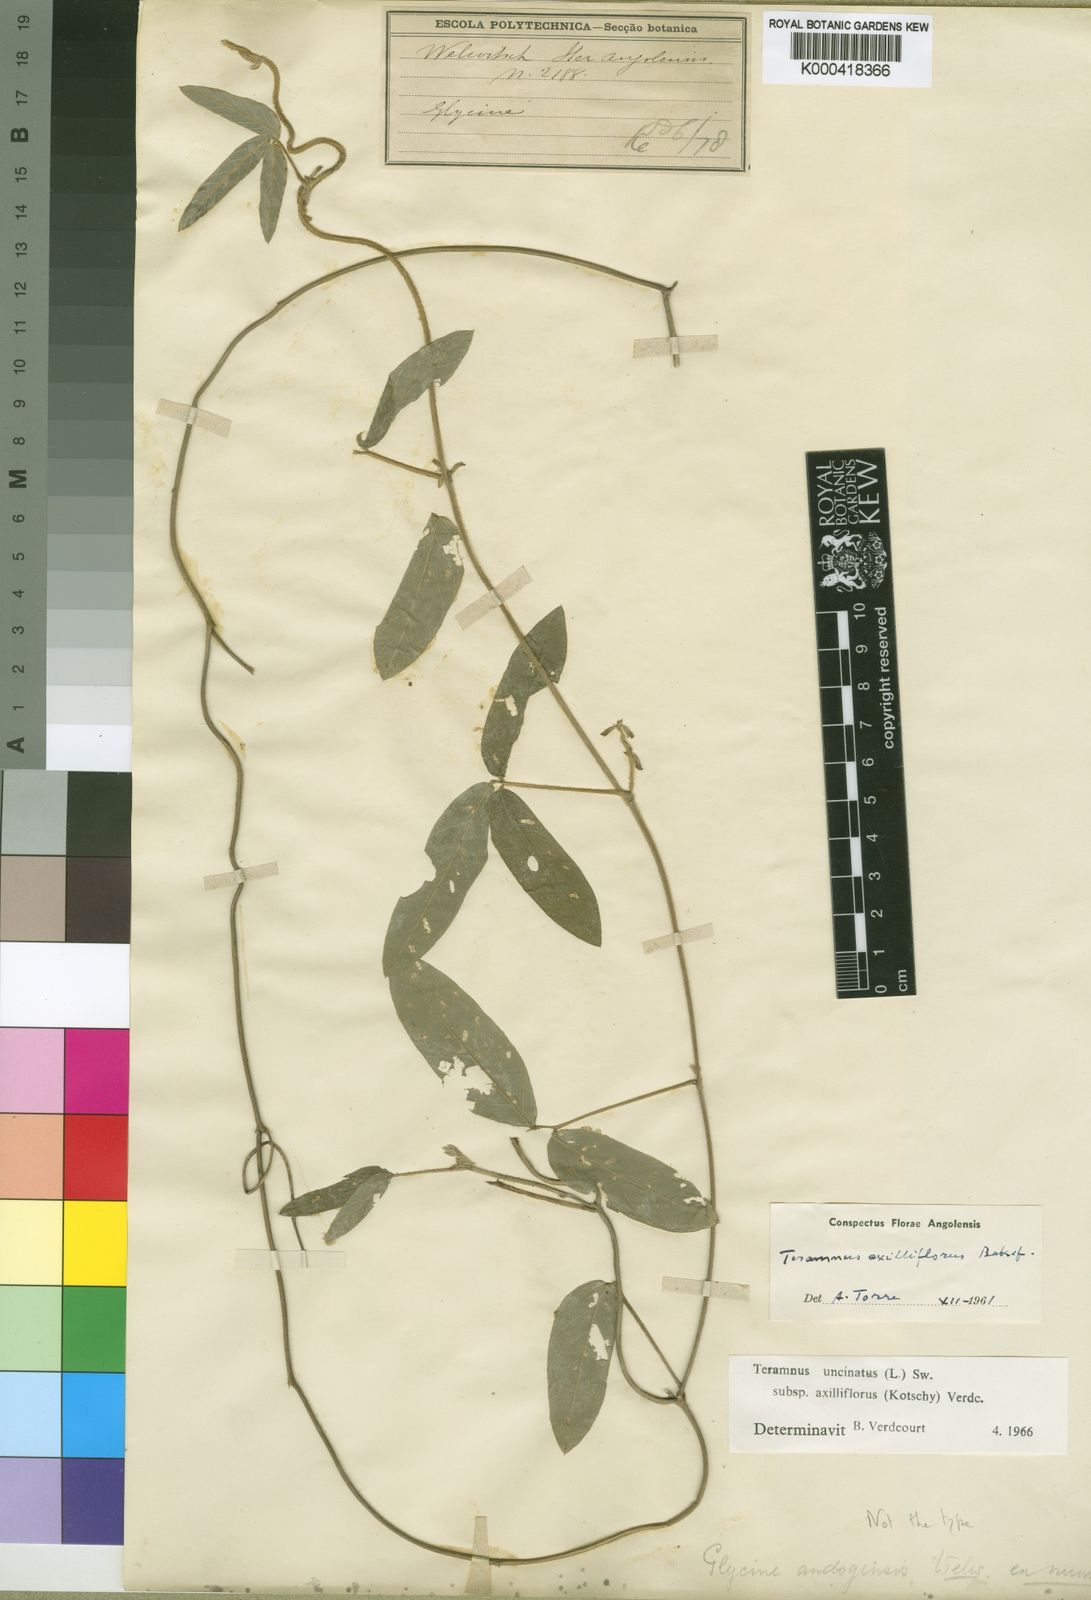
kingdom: Plantae
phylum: Tracheophyta
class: Magnoliopsida
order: Fabales
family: Fabaceae
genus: Teramnus
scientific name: Teramnus uncinatus
